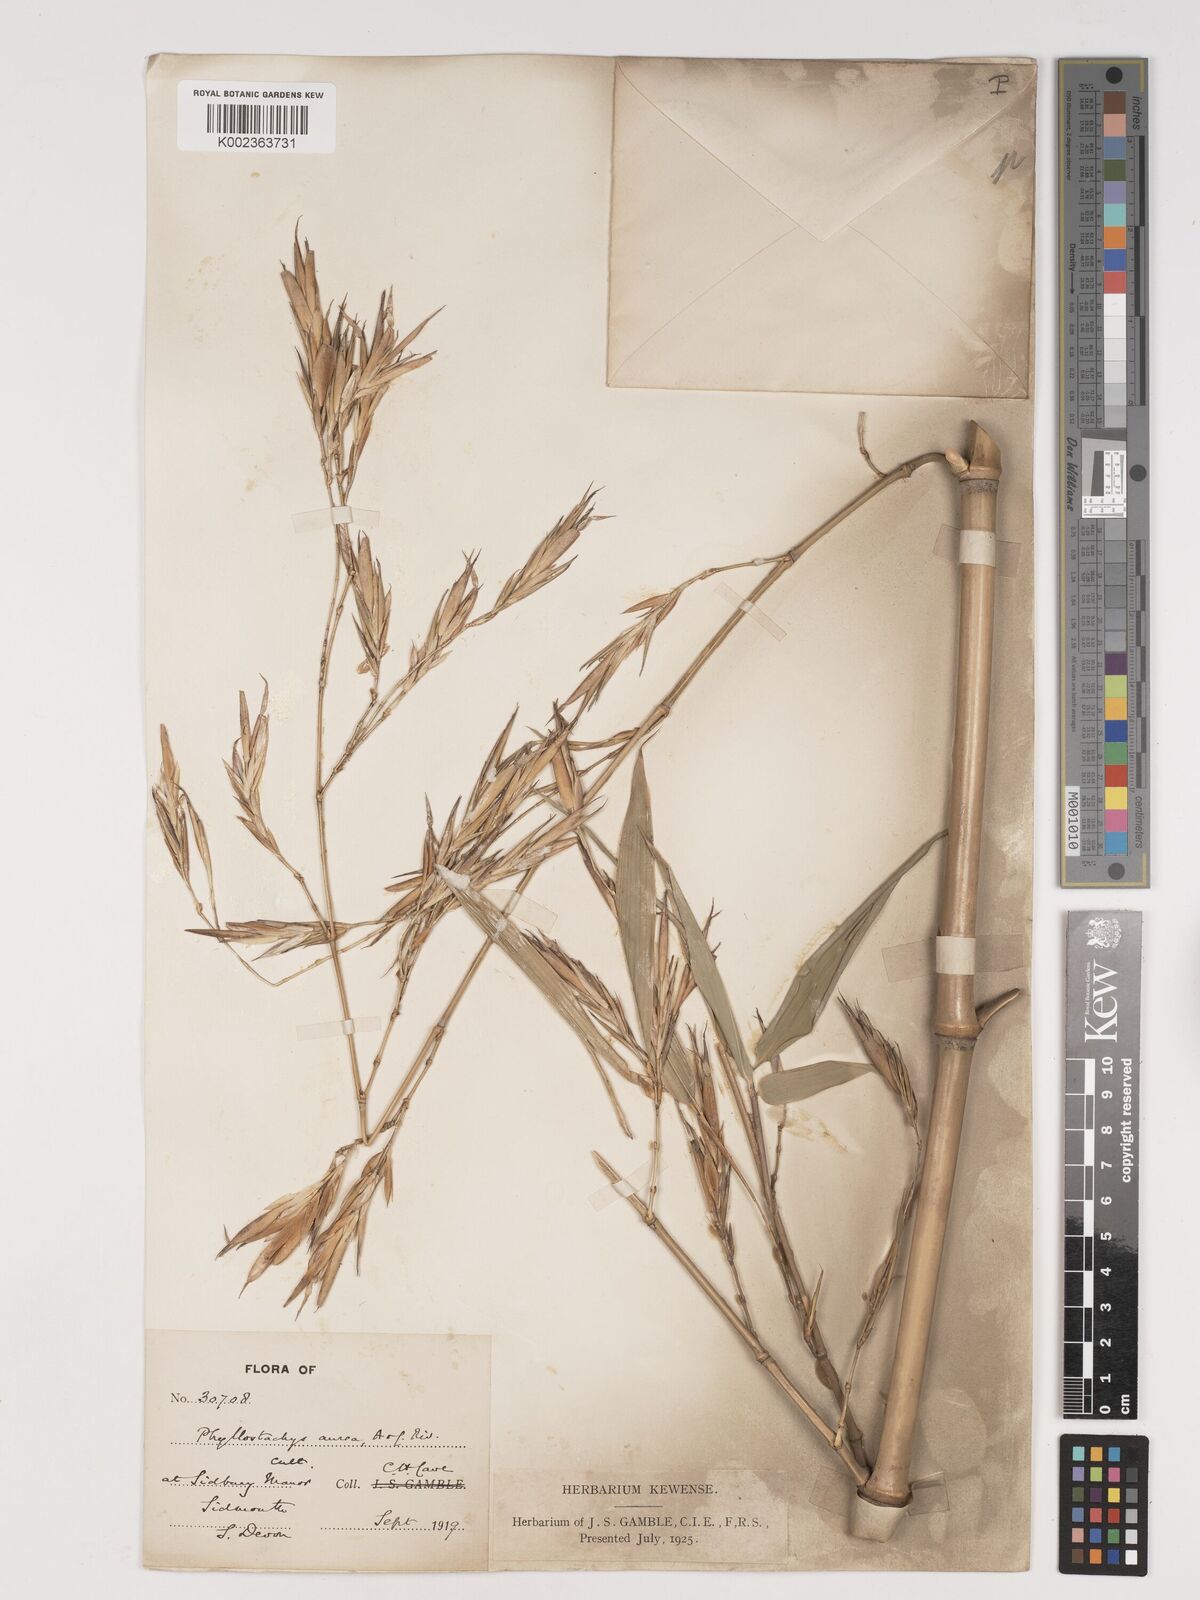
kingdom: Plantae
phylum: Tracheophyta
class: Liliopsida
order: Poales
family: Poaceae
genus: Phyllostachys
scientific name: Phyllostachys aurea
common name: Golden bamboo
